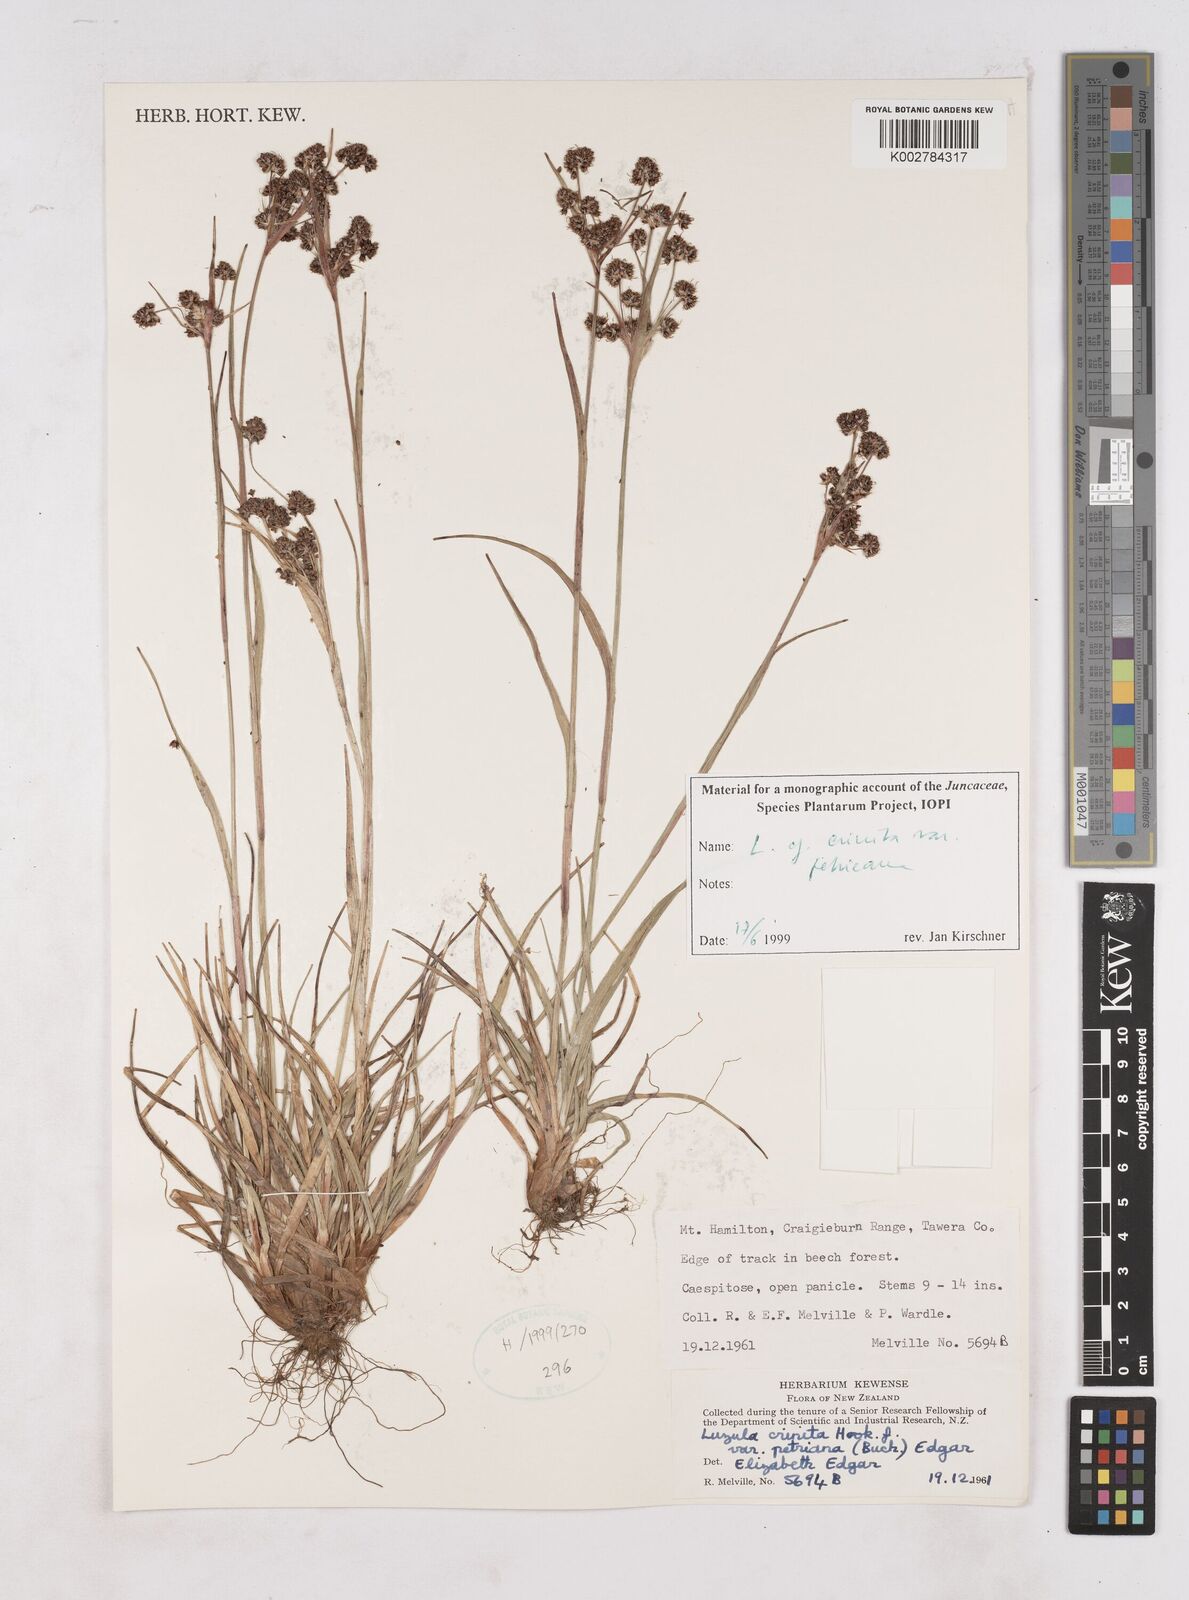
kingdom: Plantae
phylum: Tracheophyta
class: Liliopsida
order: Poales
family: Juncaceae
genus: Luzula
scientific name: Luzula crenulata
